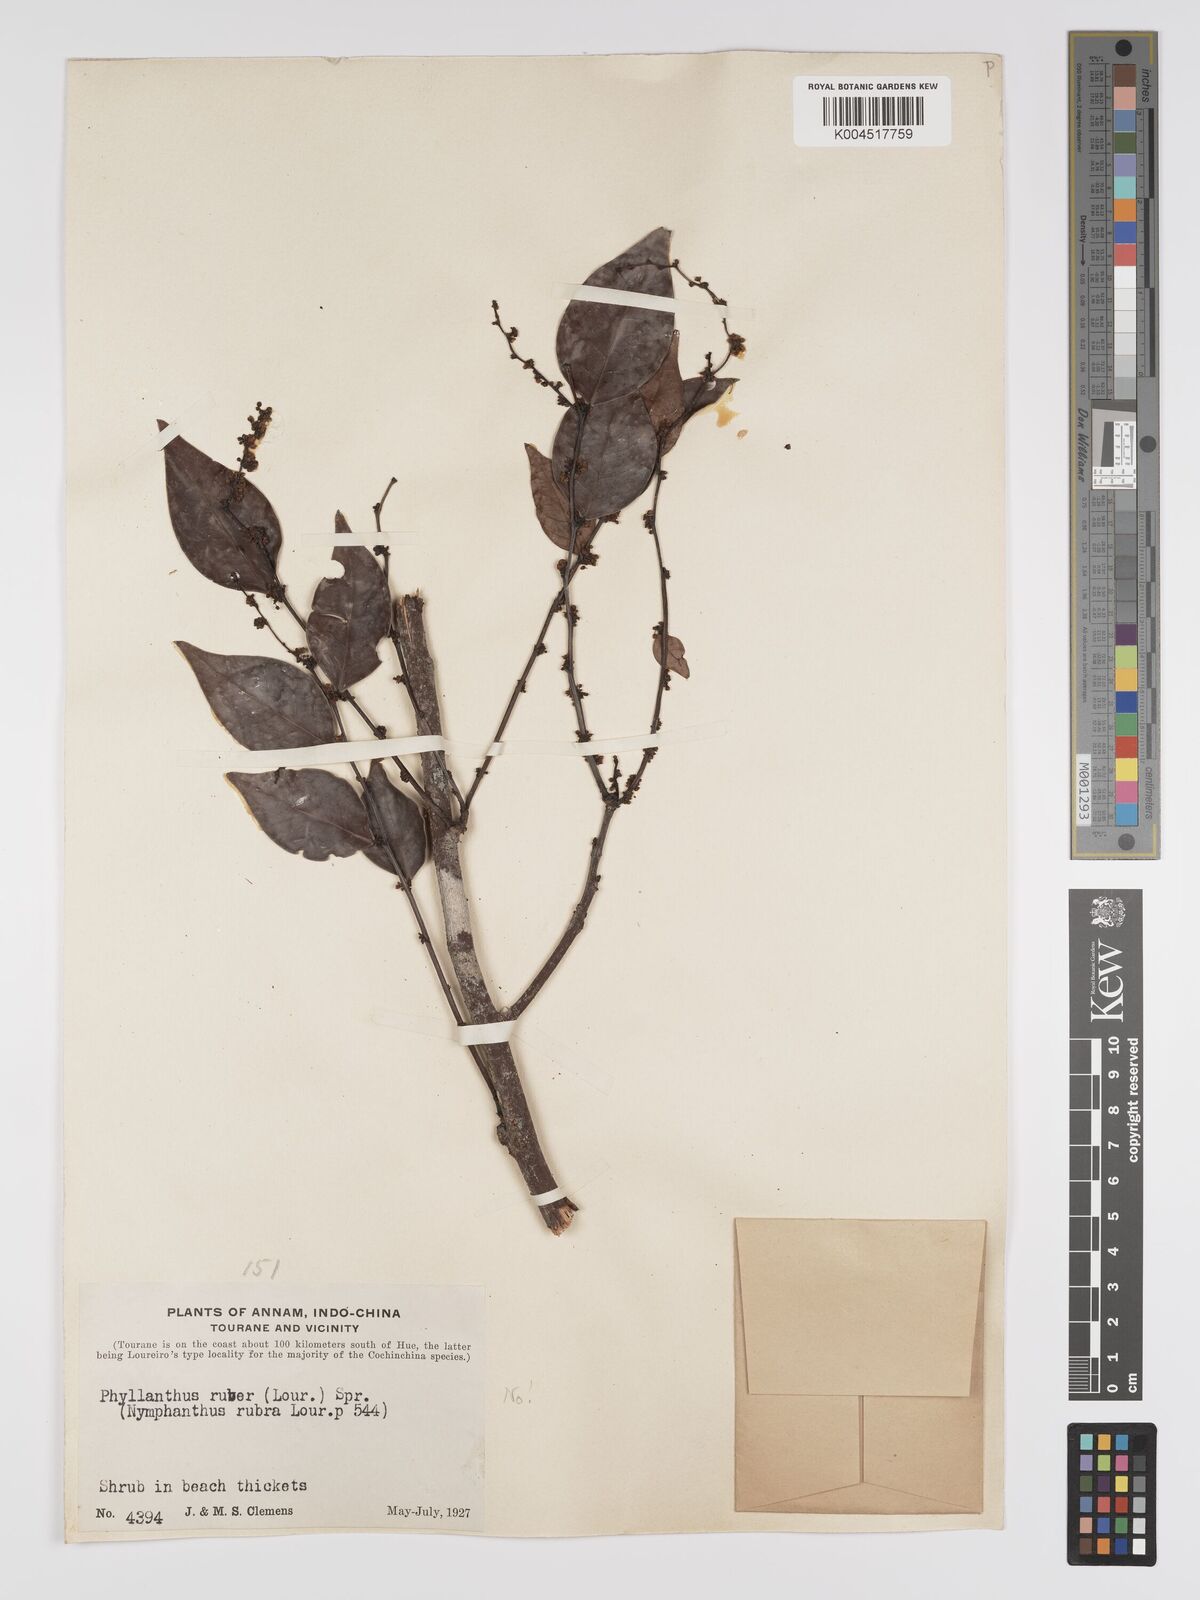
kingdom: Plantae
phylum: Tracheophyta
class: Magnoliopsida
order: Malpighiales
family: Phyllanthaceae
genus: Phyllanthus
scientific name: Phyllanthus pachyphyllus
